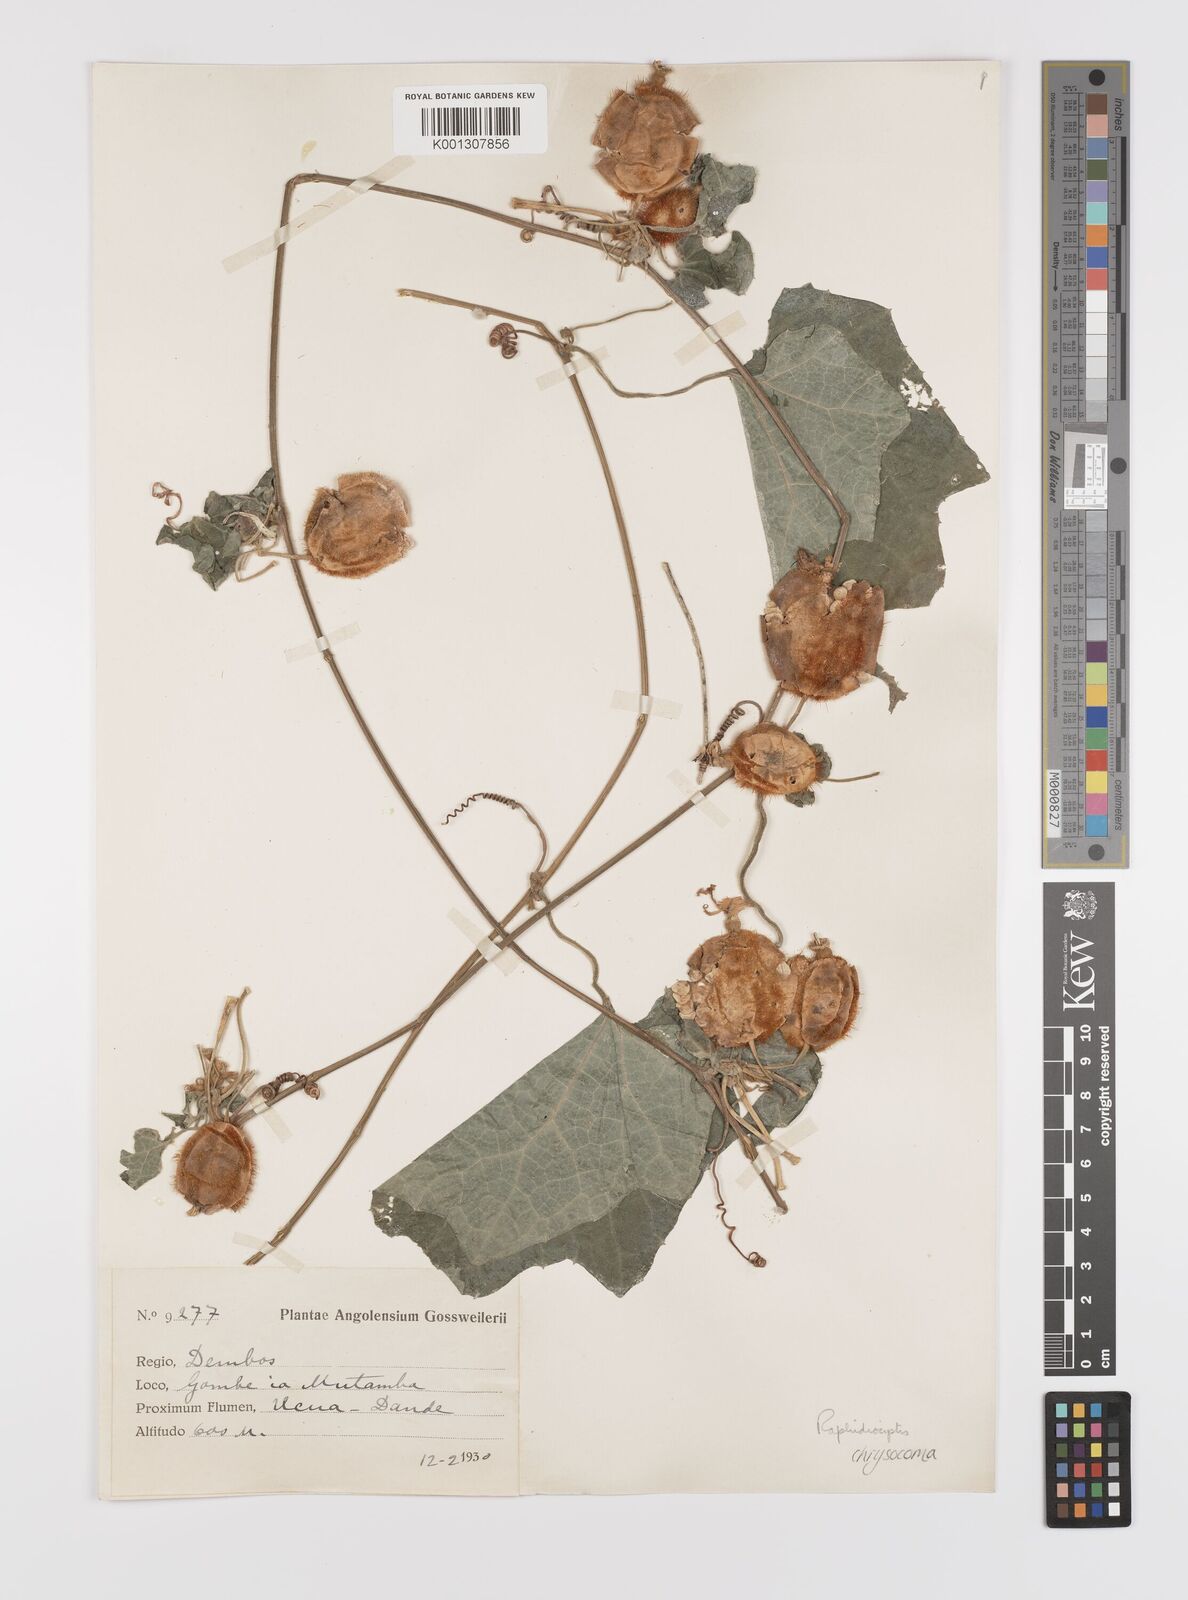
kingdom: Plantae
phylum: Tracheophyta
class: Magnoliopsida
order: Cucurbitales
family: Cucurbitaceae
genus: Raphidiocystis
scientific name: Raphidiocystis chrysocoma
